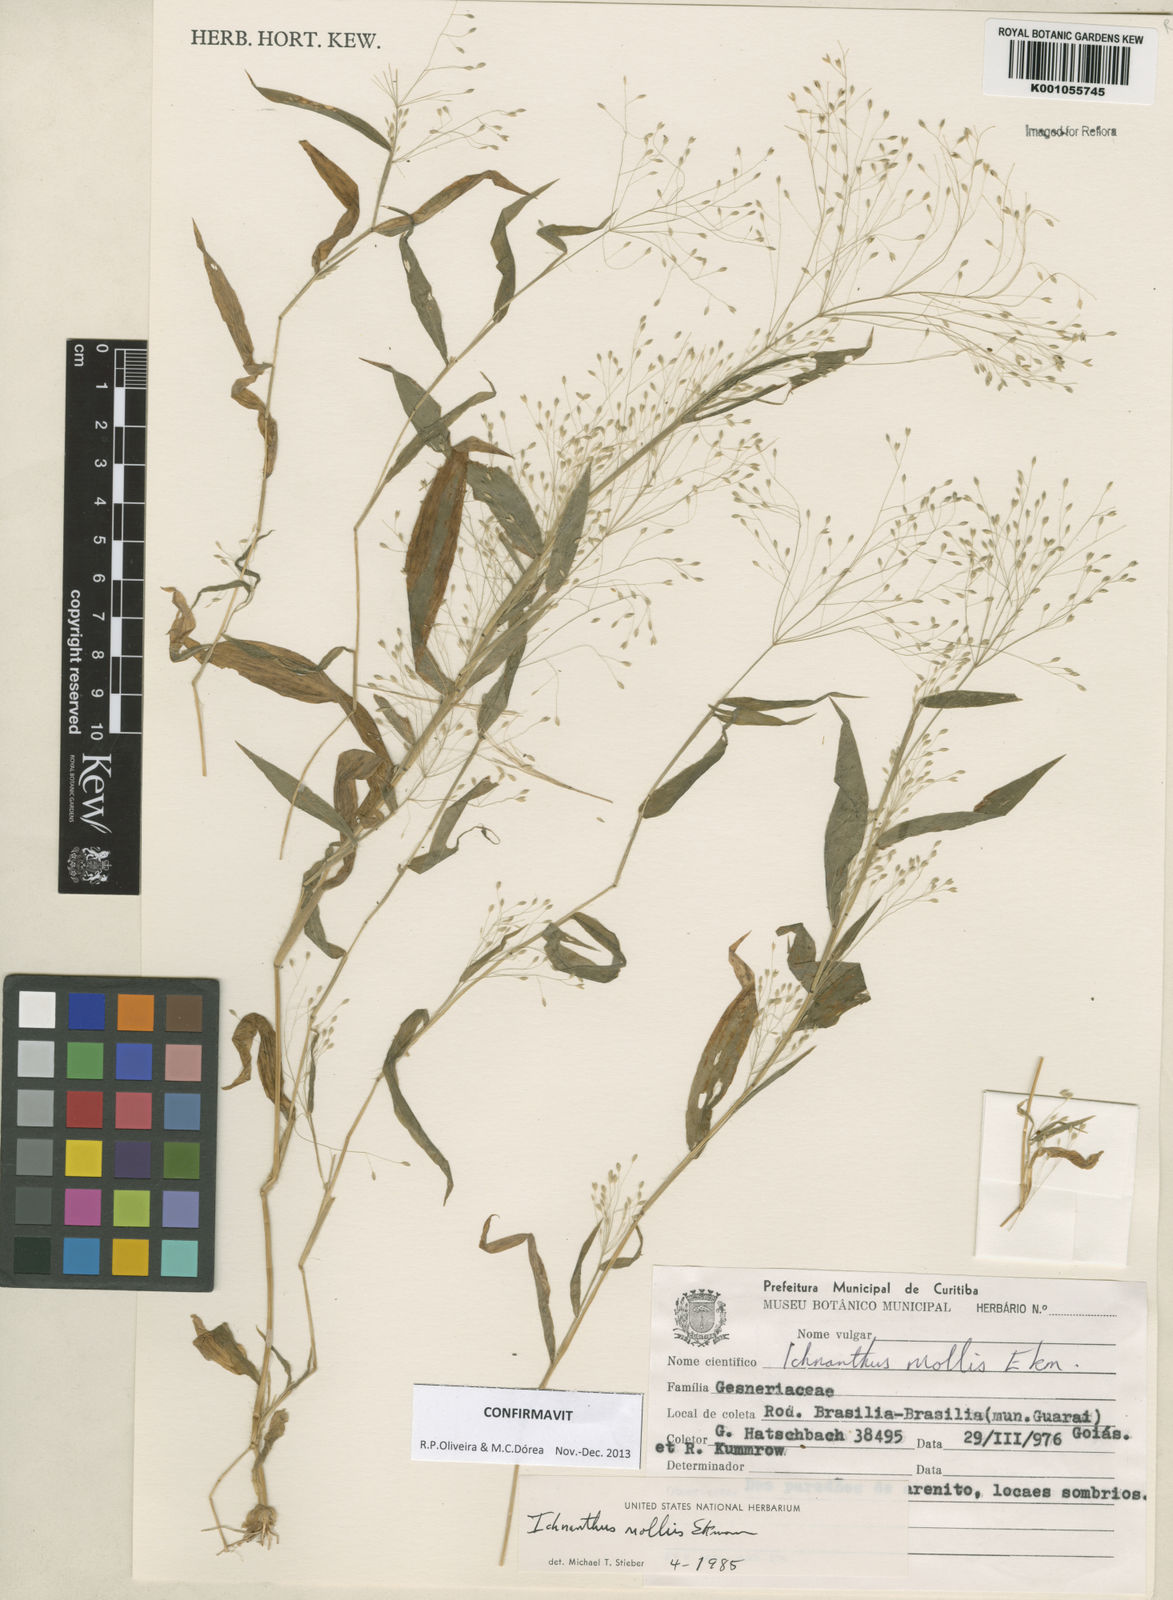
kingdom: Plantae
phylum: Tracheophyta
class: Liliopsida
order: Poales
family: Poaceae
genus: Ichnanthus
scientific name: Ichnanthus mollis
